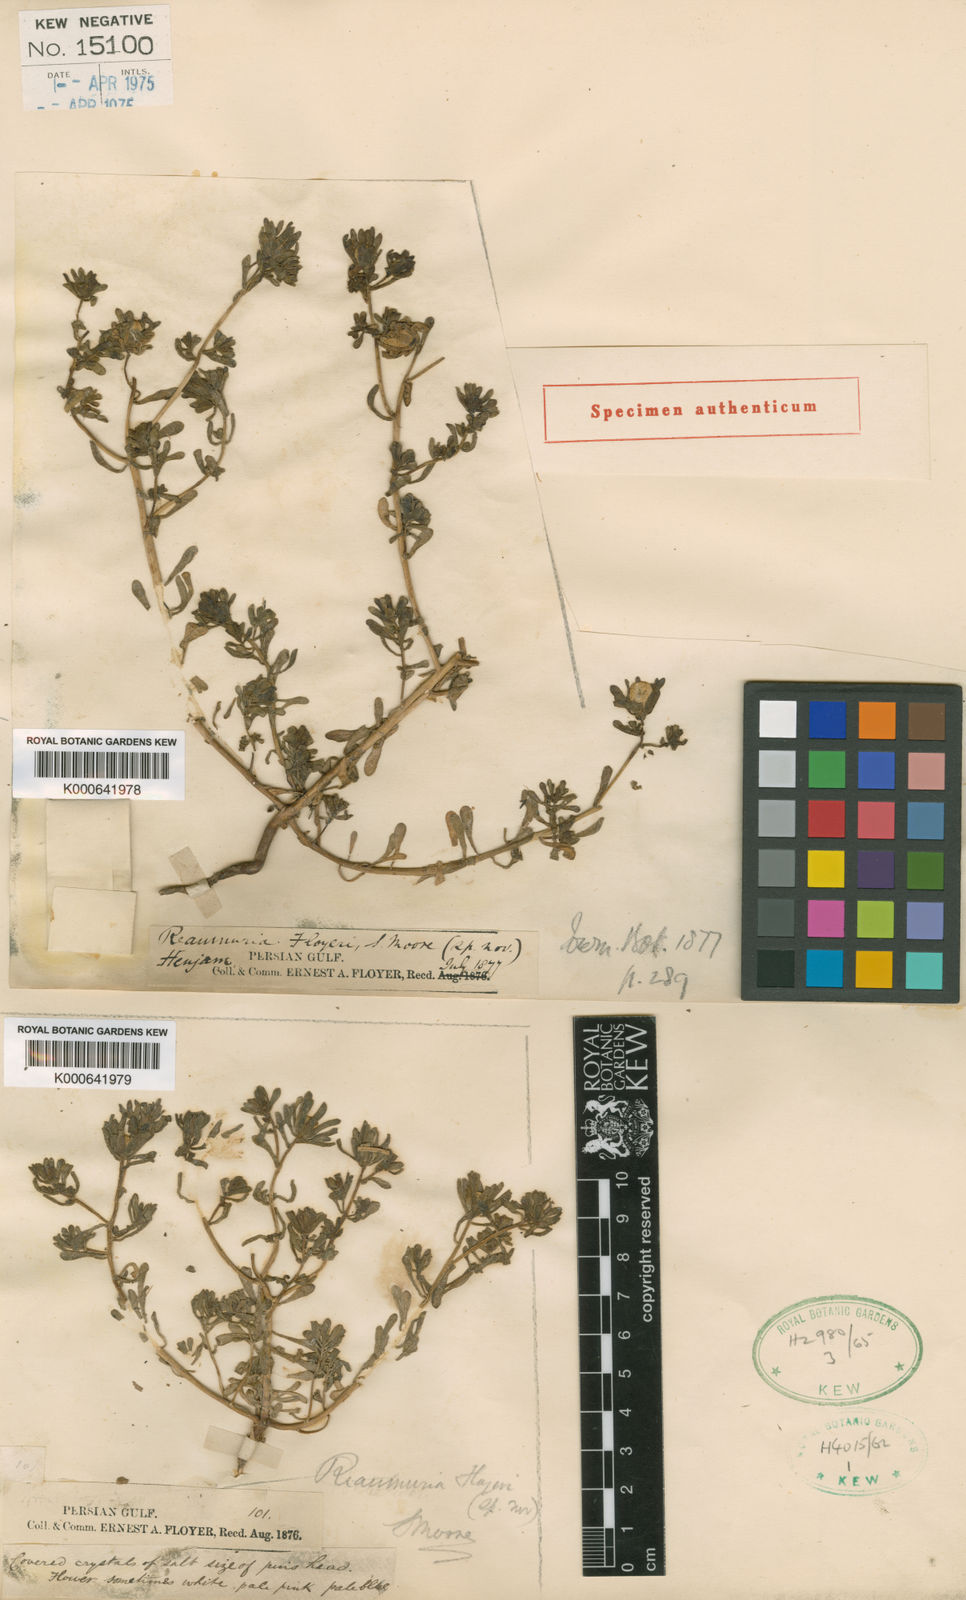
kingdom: Plantae
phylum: Tracheophyta
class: Magnoliopsida
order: Caryophyllales
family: Tamaricaceae
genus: Reaumuria
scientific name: Reaumuria floyeri
